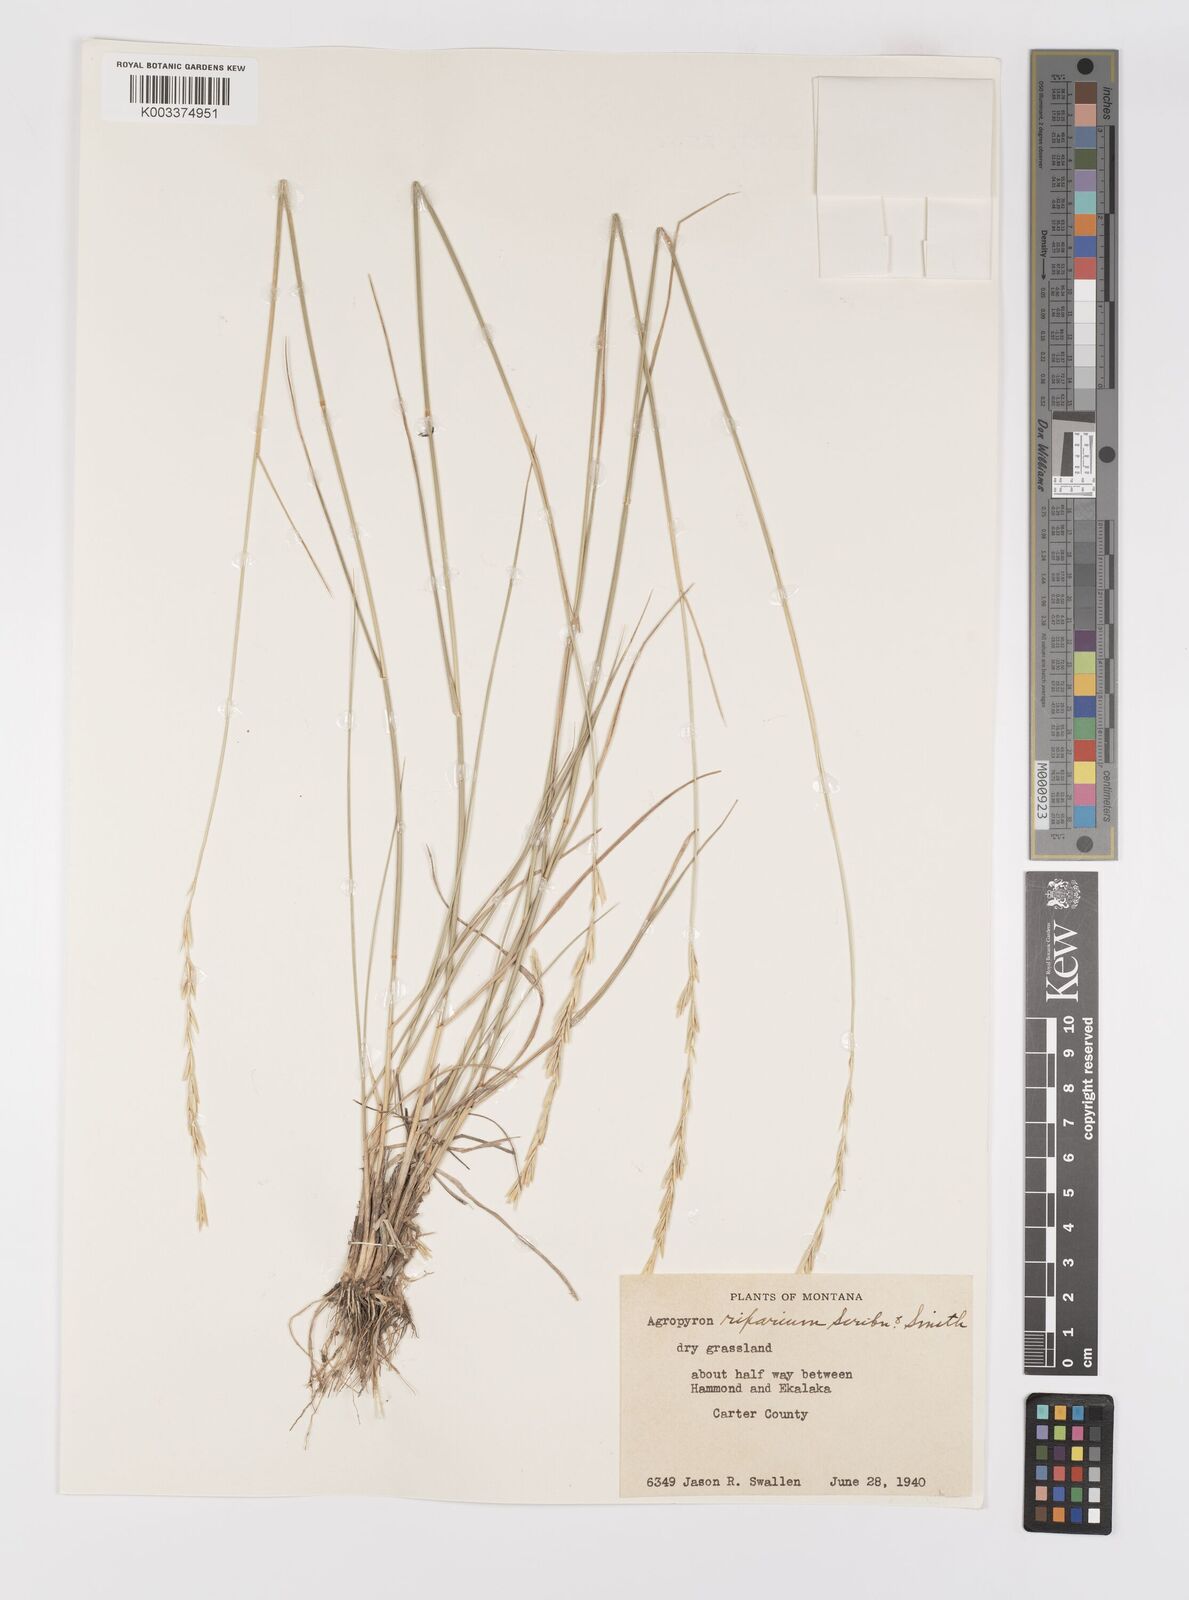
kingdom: Plantae
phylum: Tracheophyta
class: Liliopsida
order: Poales
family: Poaceae
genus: Elymus
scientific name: Elymus lanceolatus
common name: Thick-spike wheatgrass
